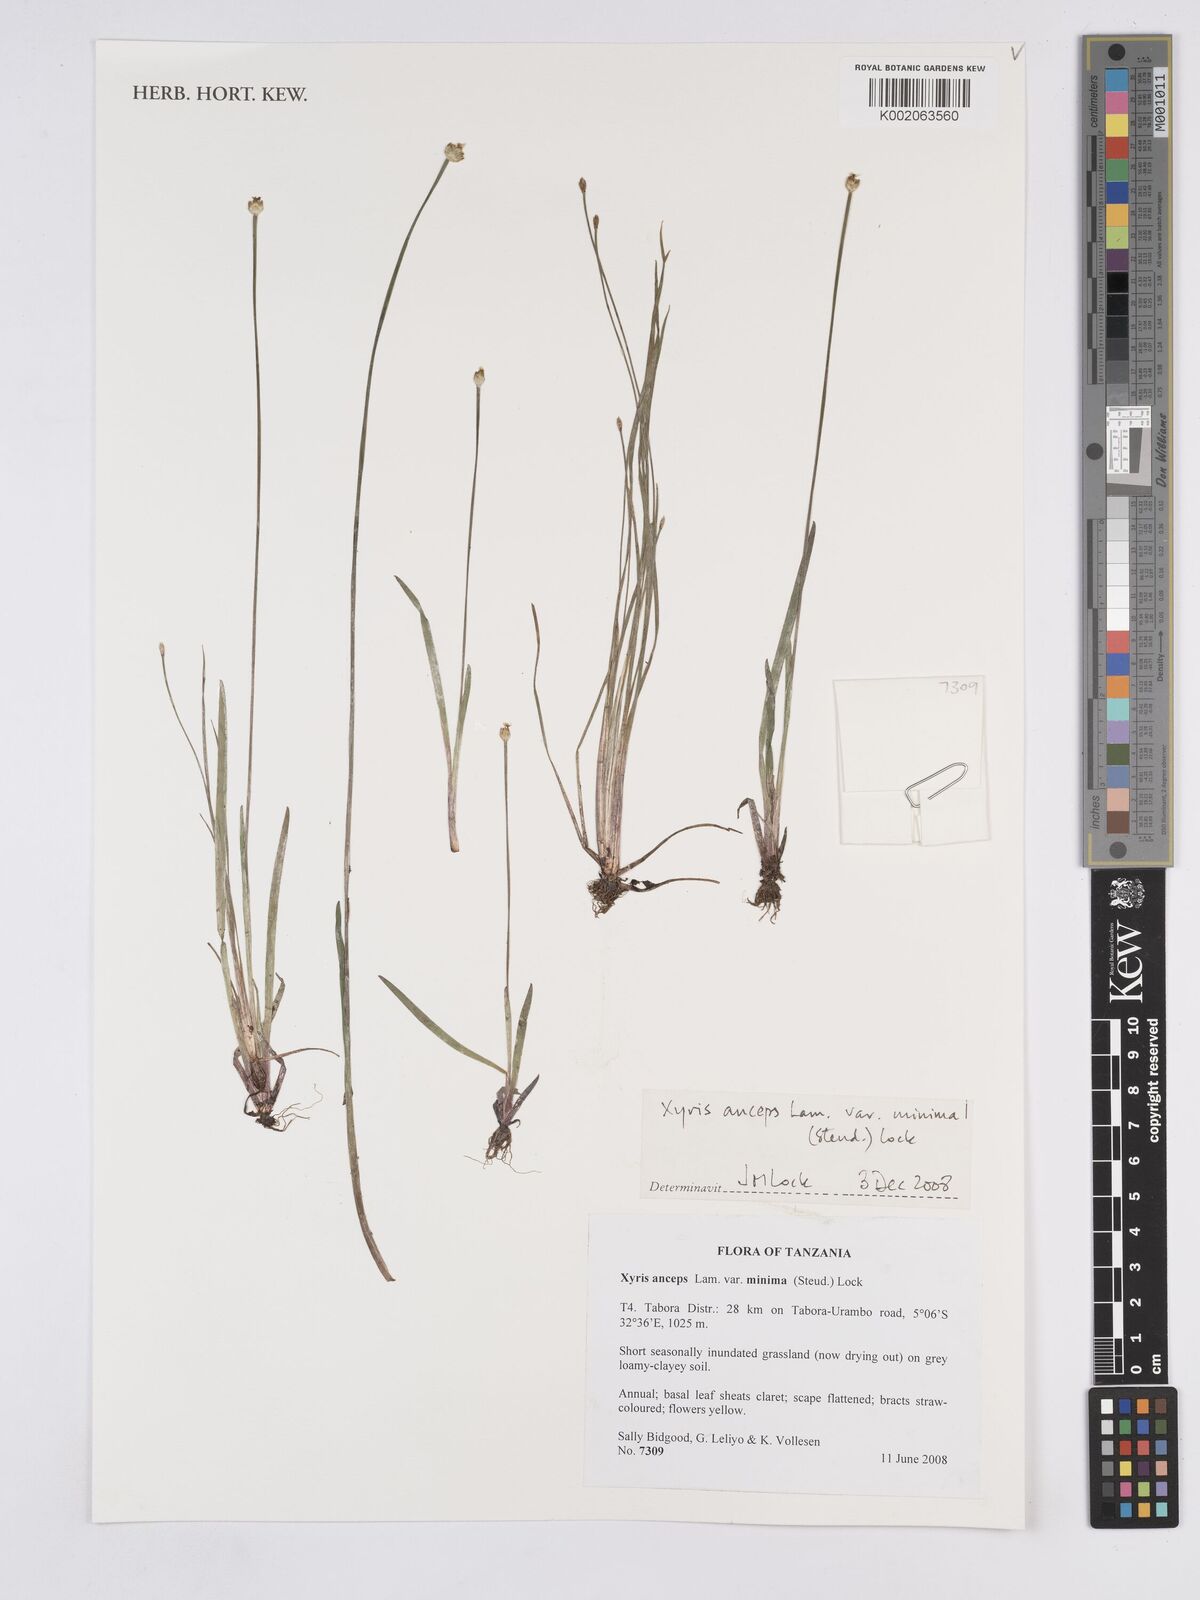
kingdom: Plantae
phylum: Tracheophyta
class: Liliopsida
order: Poales
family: Xyridaceae
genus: Xyris
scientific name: Xyris anceps
